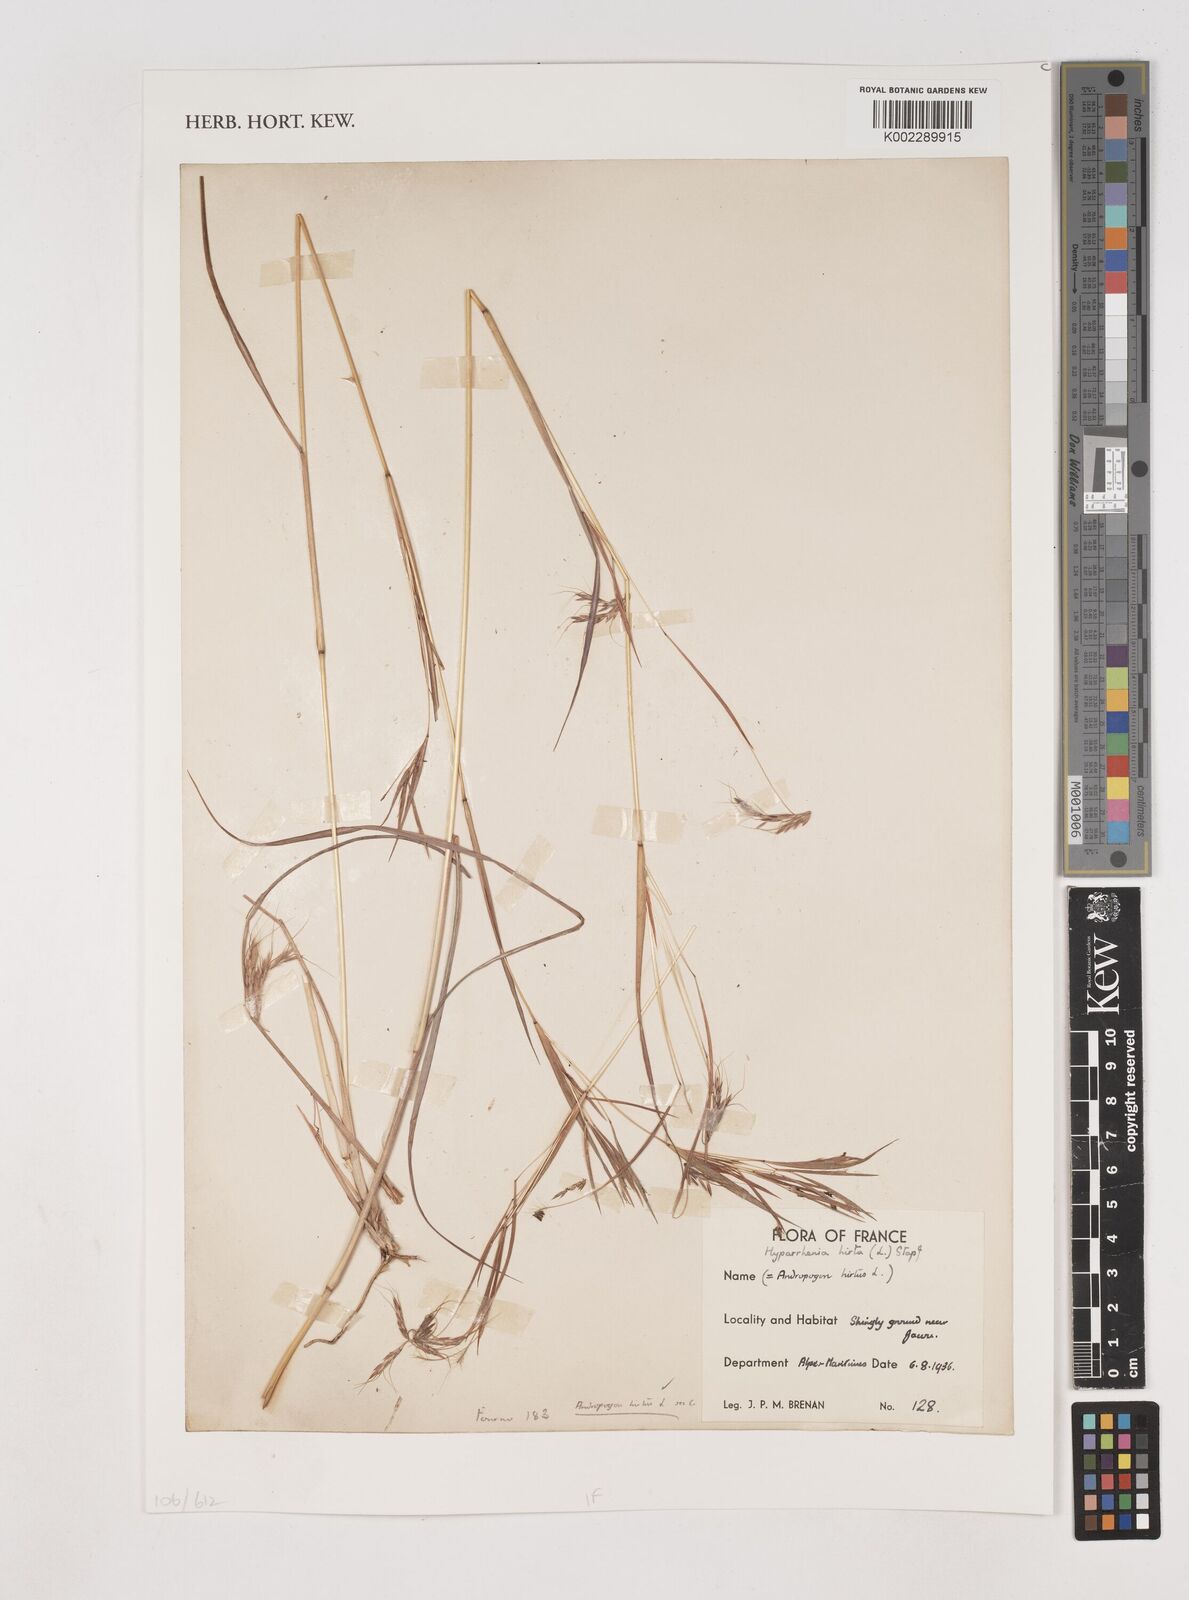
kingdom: Plantae
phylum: Tracheophyta
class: Liliopsida
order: Poales
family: Poaceae
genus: Hyparrhenia
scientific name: Hyparrhenia hirta
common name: Thatching grass
